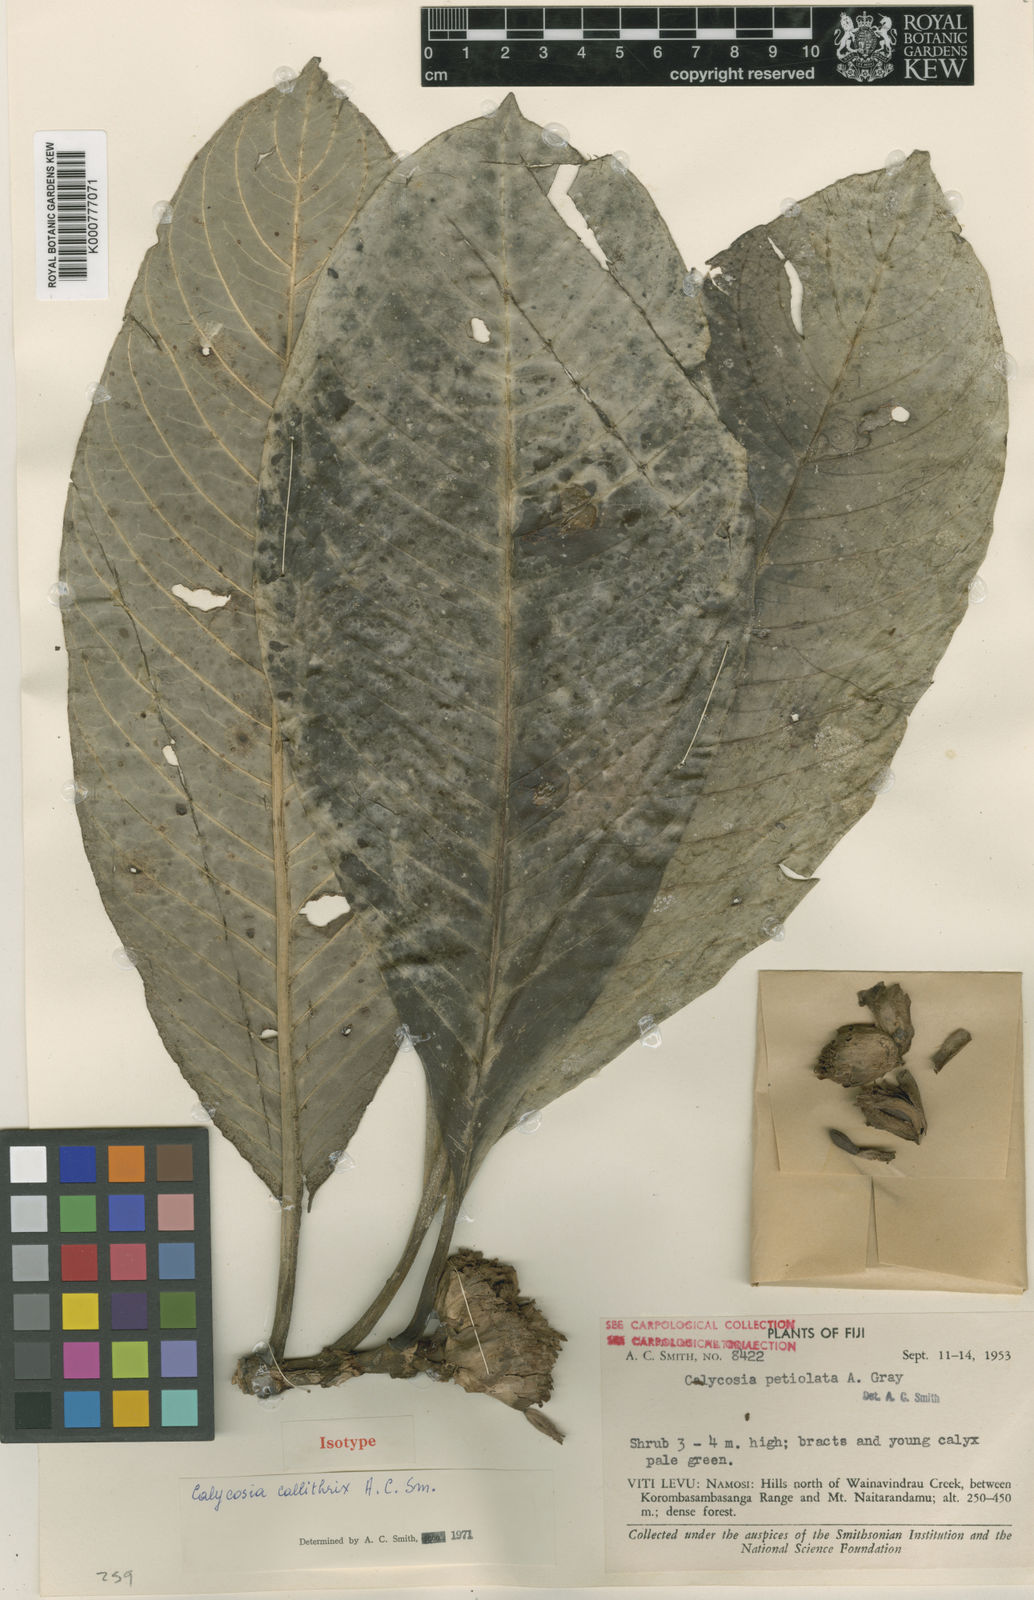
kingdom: Plantae
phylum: Tracheophyta
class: Magnoliopsida
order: Gentianales
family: Rubiaceae
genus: Calycosia
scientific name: Calycosia callithrix
